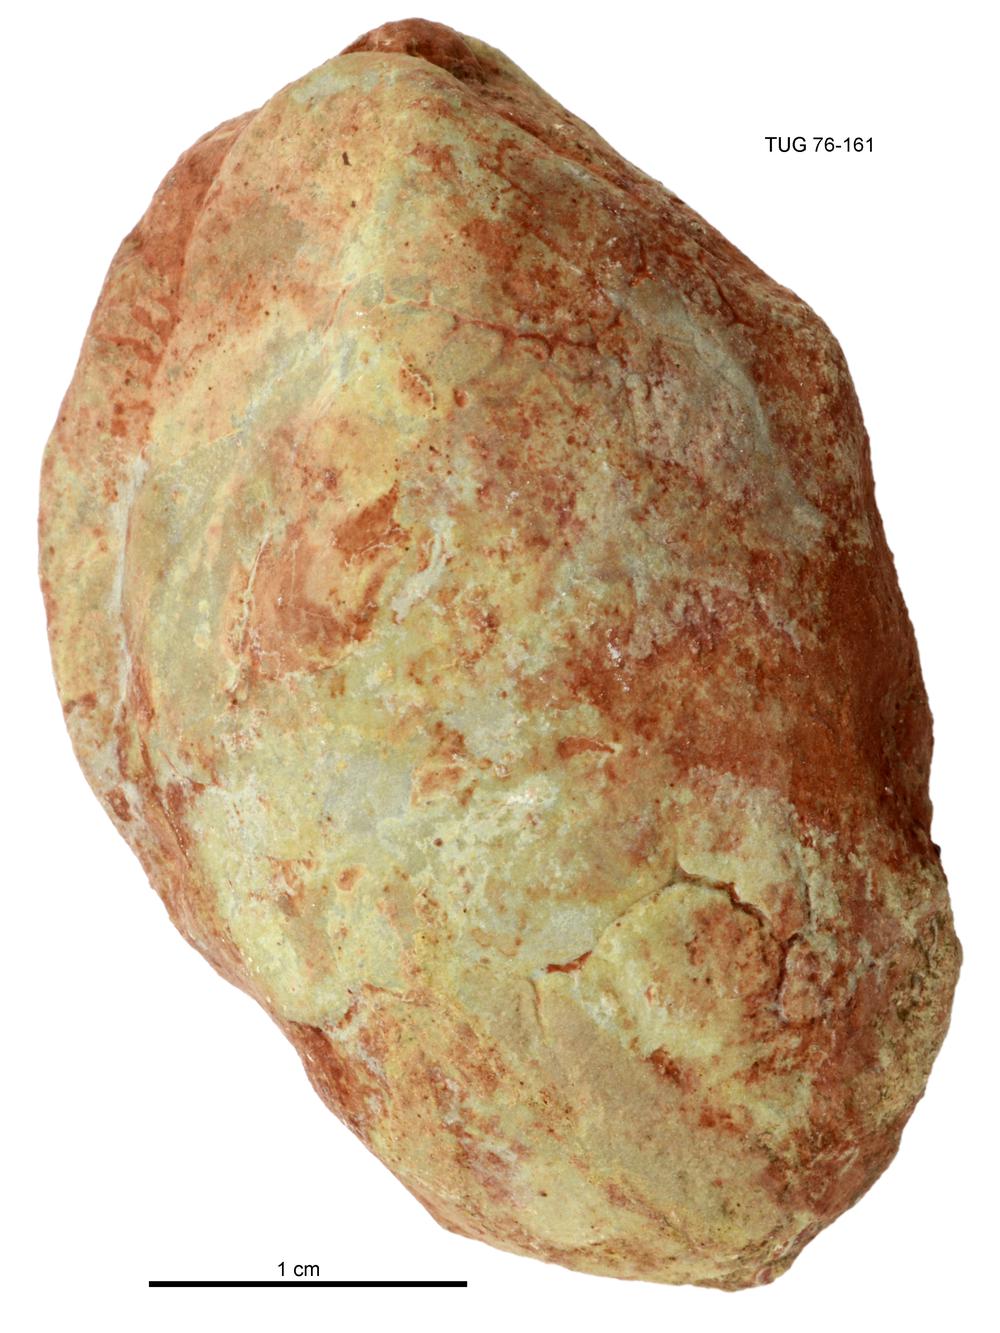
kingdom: Animalia
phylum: Mollusca
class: Bivalvia
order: Cyrtodontida
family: Cyrtodontidae
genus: Cypricardites
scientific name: Cypricardites
